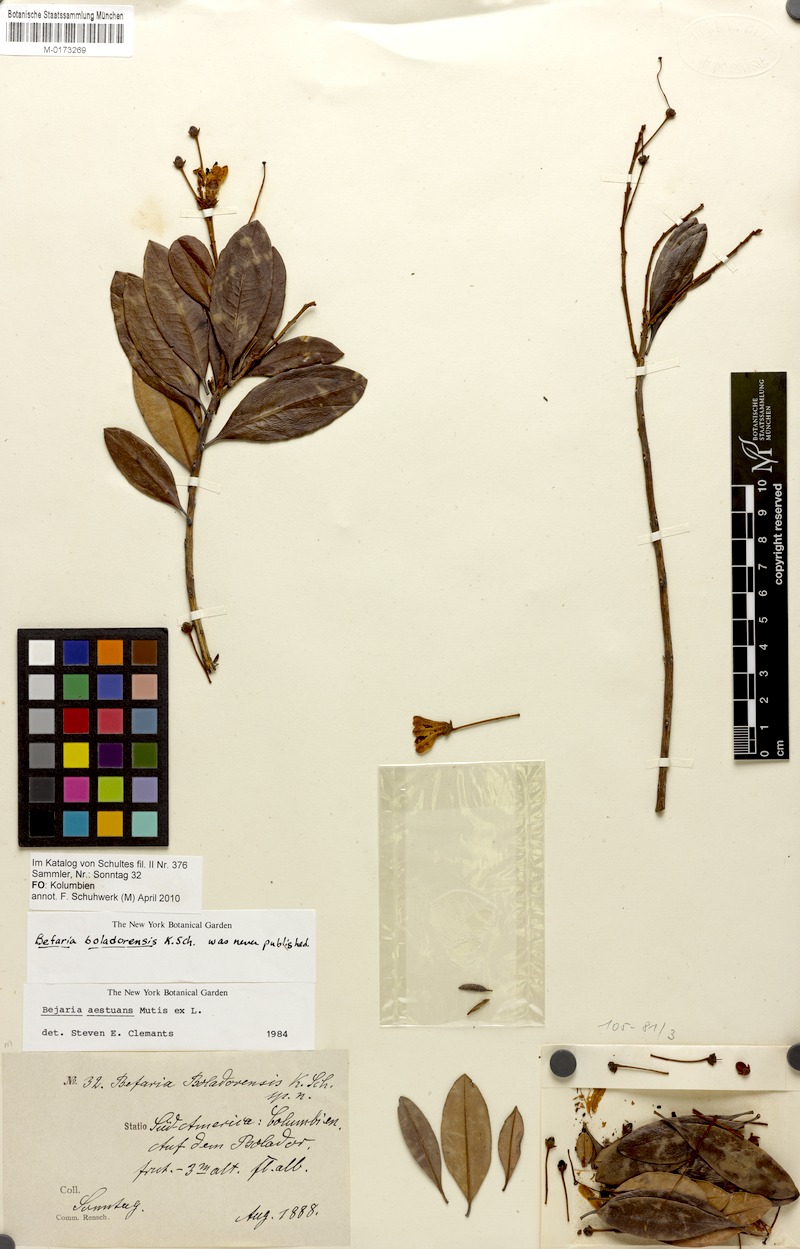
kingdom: Plantae
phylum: Tracheophyta
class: Magnoliopsida
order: Ericales
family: Ericaceae
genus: Bejaria
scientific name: Bejaria aestuans
